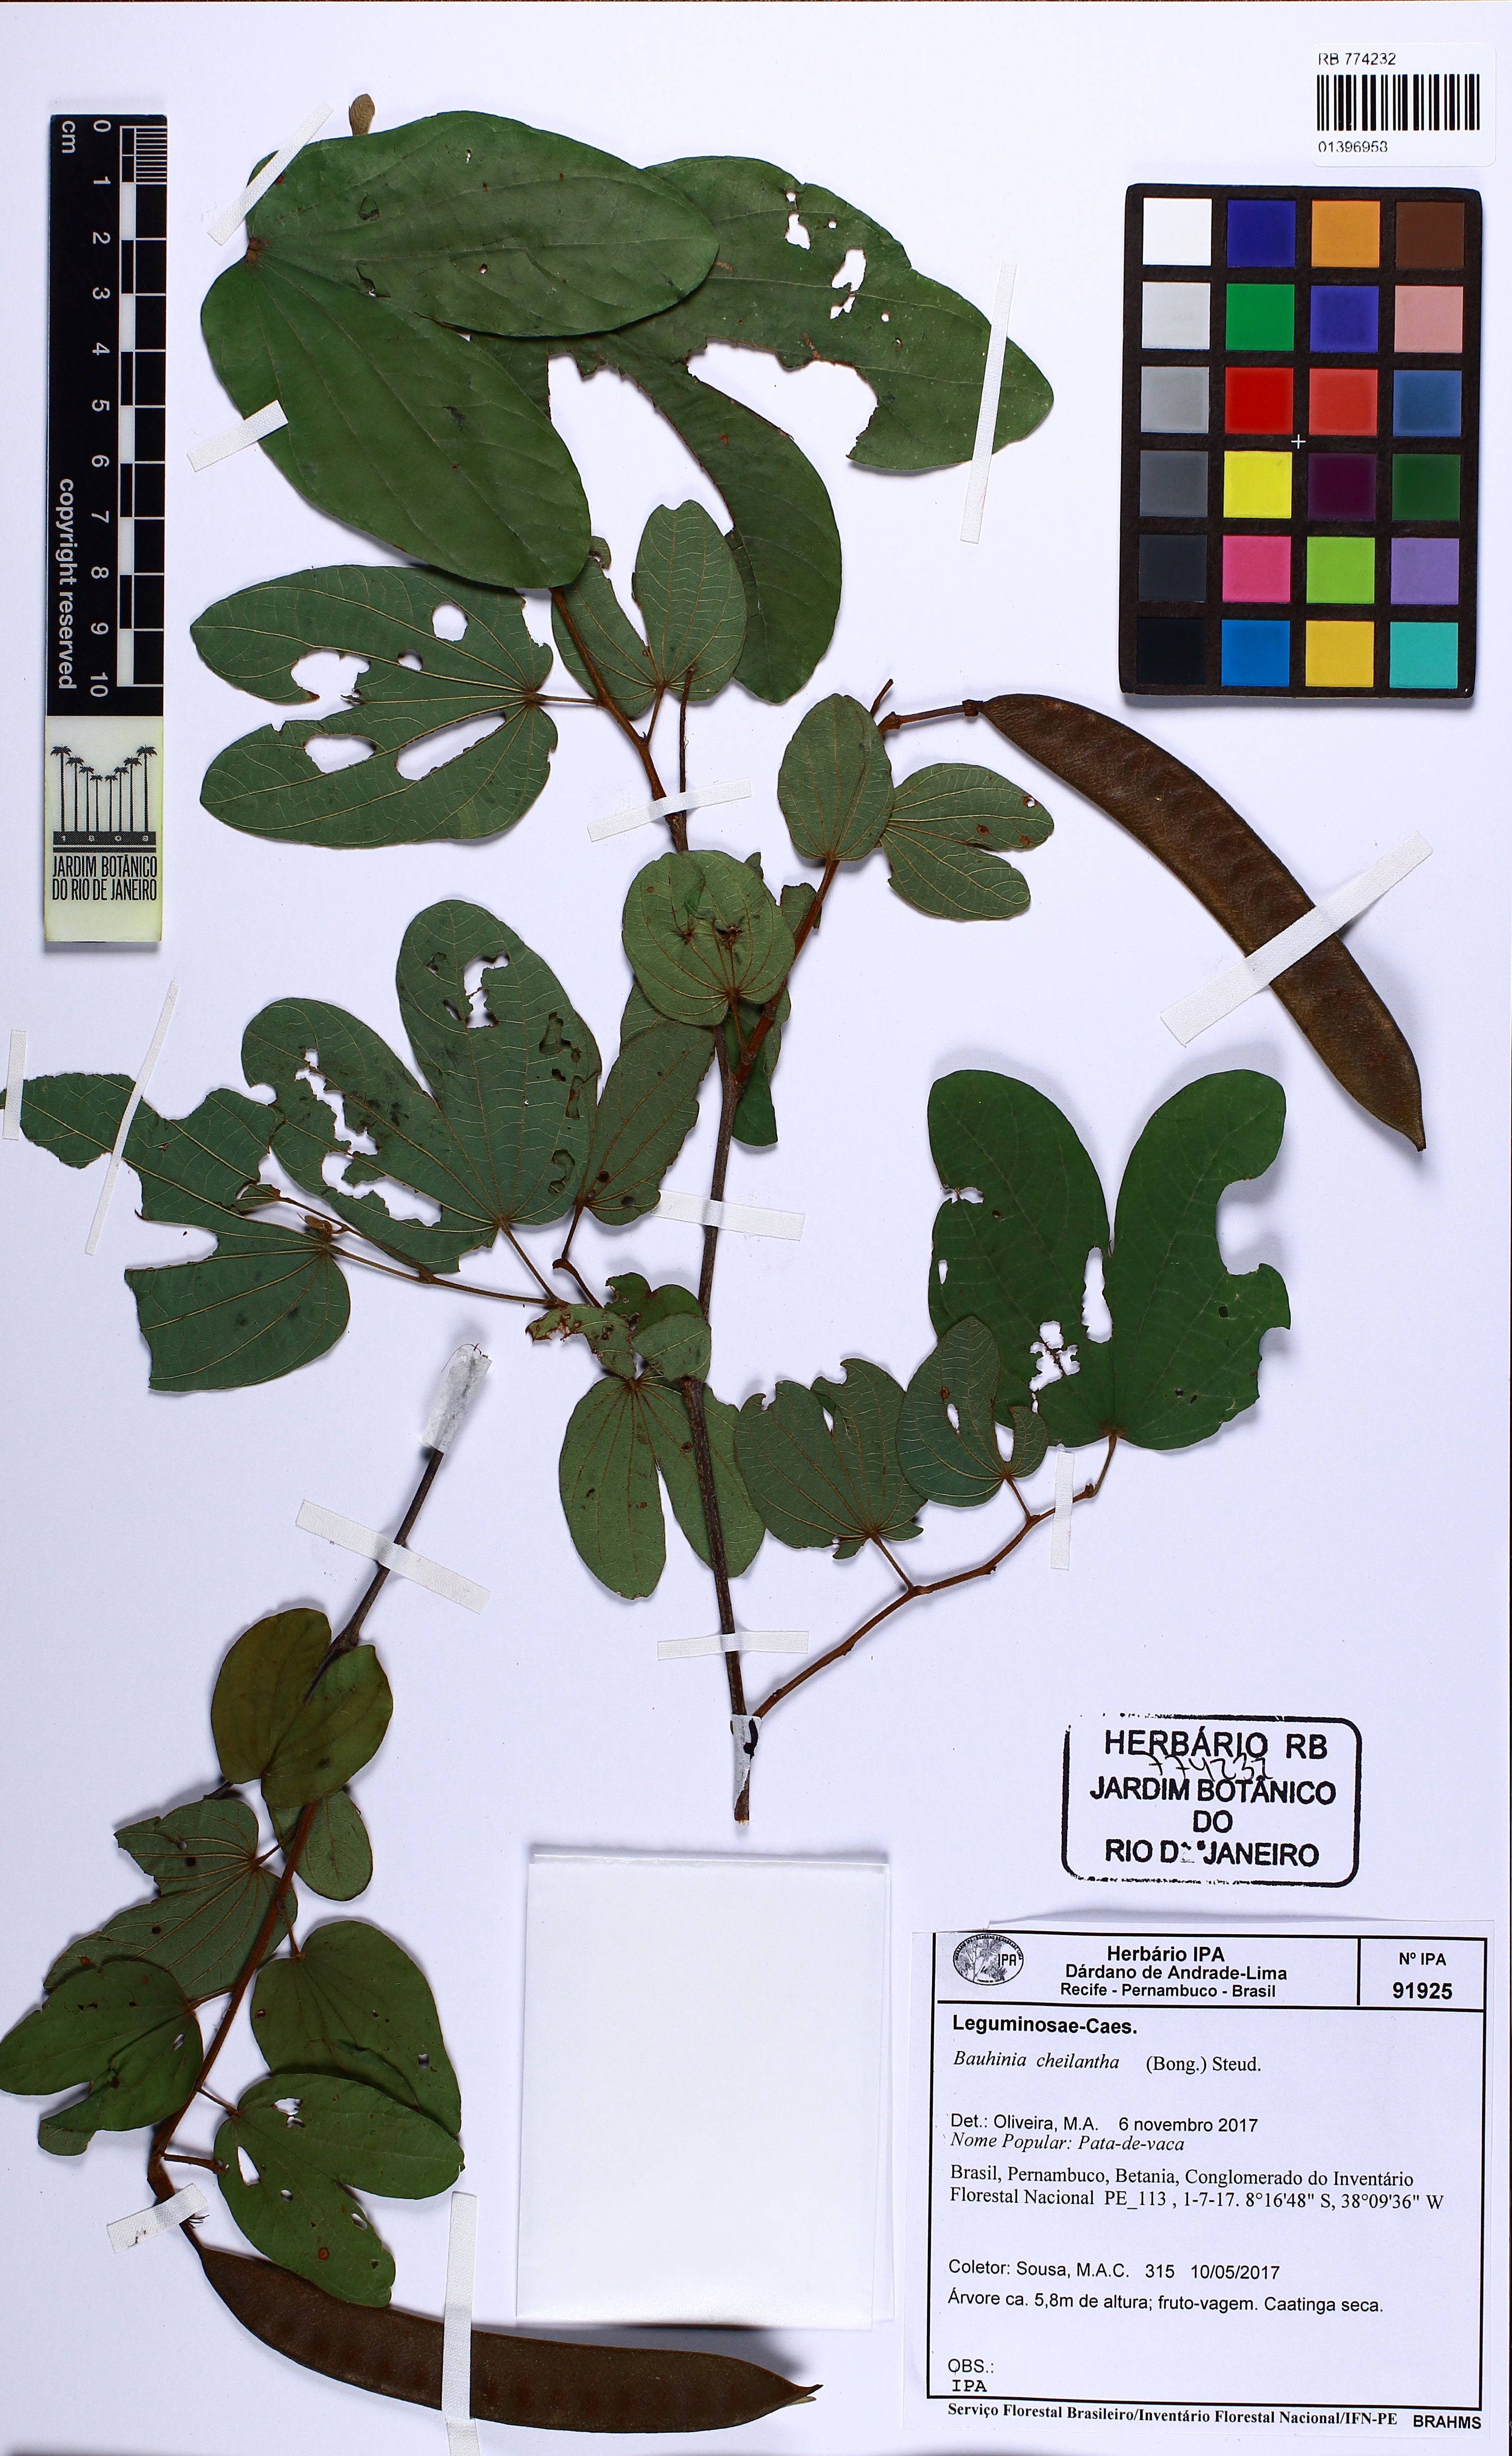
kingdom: Plantae
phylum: Tracheophyta
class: Magnoliopsida
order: Fabales
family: Fabaceae
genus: Bauhinia
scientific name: Bauhinia cheilantha
